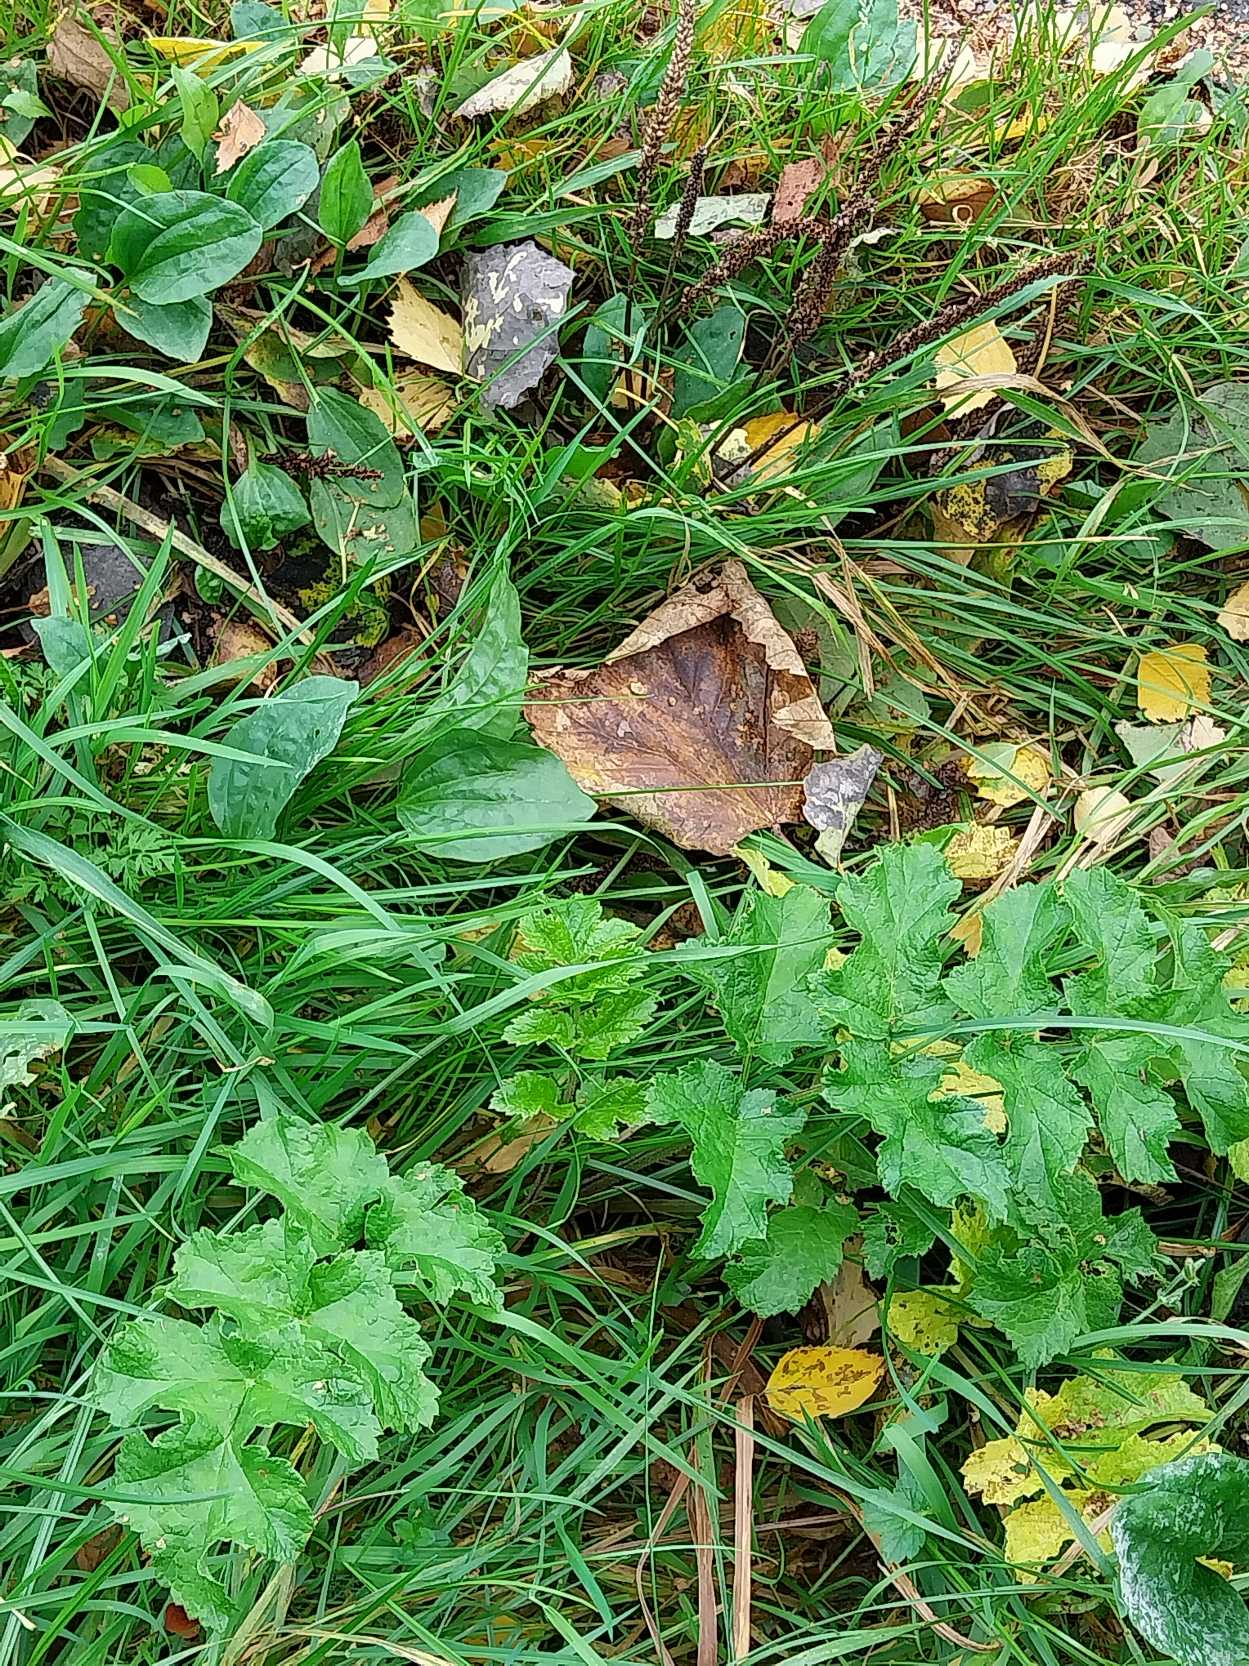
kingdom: Plantae
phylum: Tracheophyta
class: Magnoliopsida
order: Apiales
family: Apiaceae
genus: Heracleum
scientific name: Heracleum sphondylium
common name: Almindelig bjørneklo
